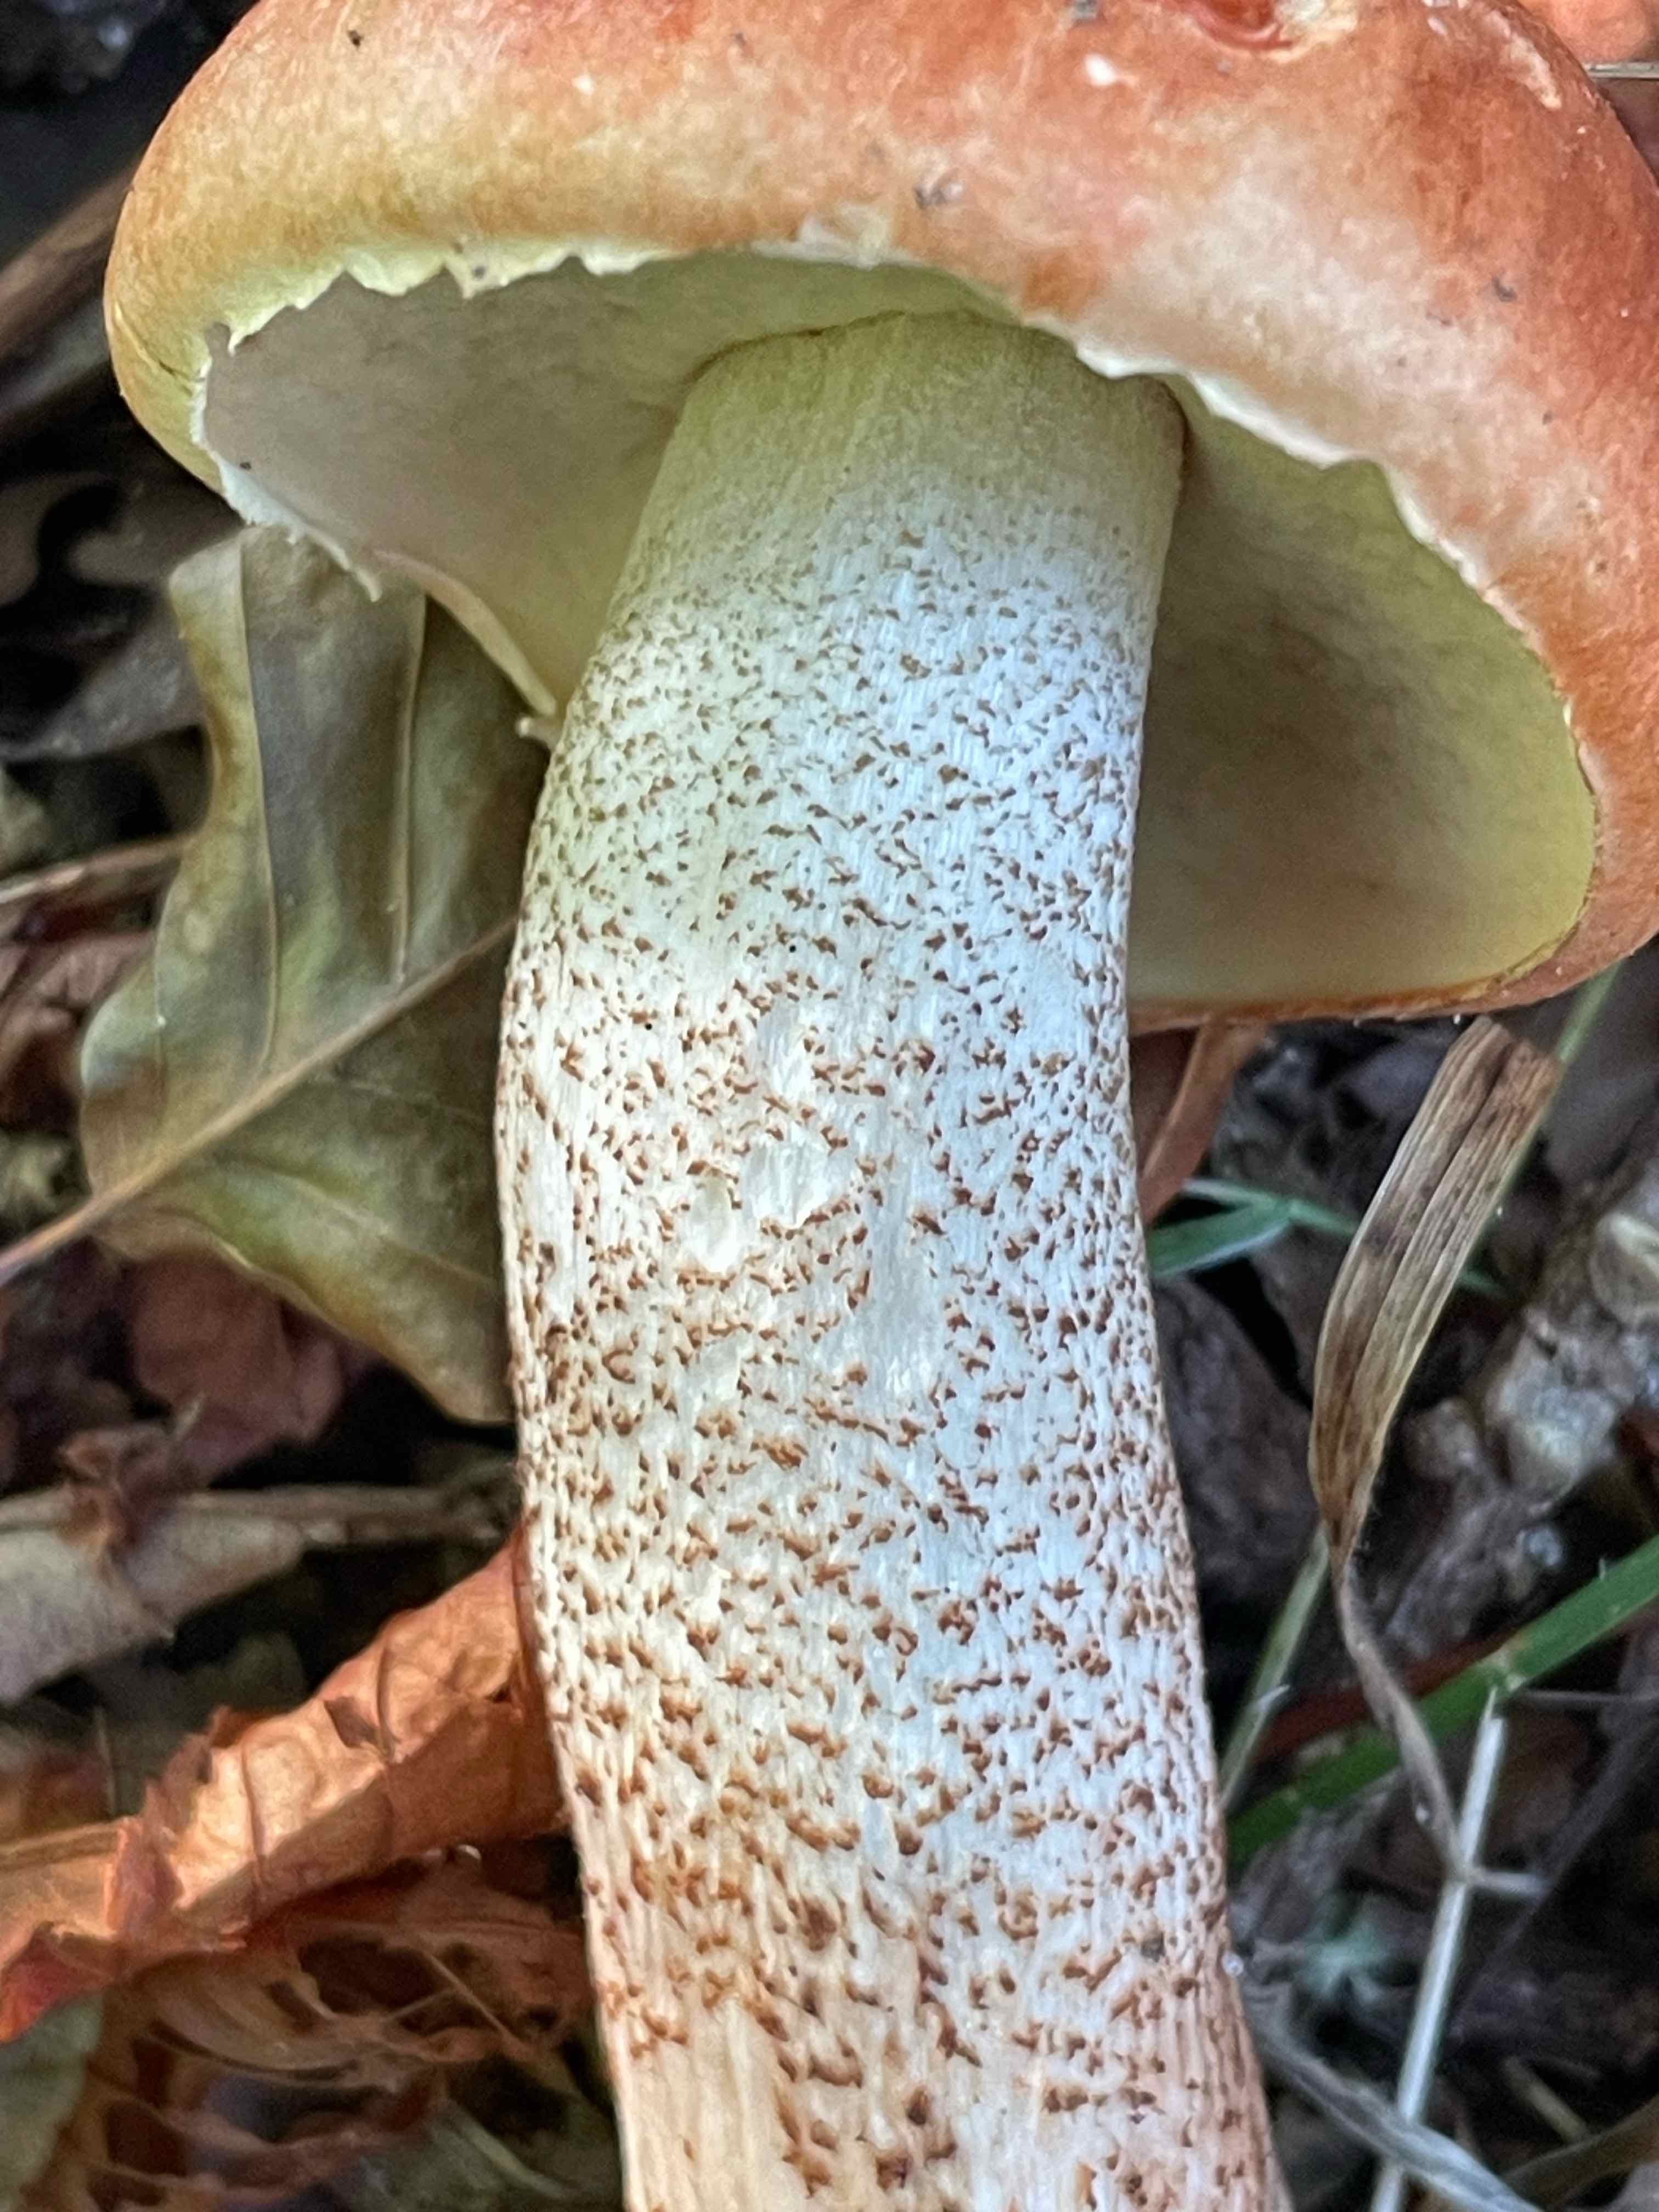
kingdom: Fungi
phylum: Basidiomycota
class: Agaricomycetes
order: Boletales
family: Boletaceae
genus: Leccinum
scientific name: Leccinum aurantiacum
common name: rustrød skælrørhat
